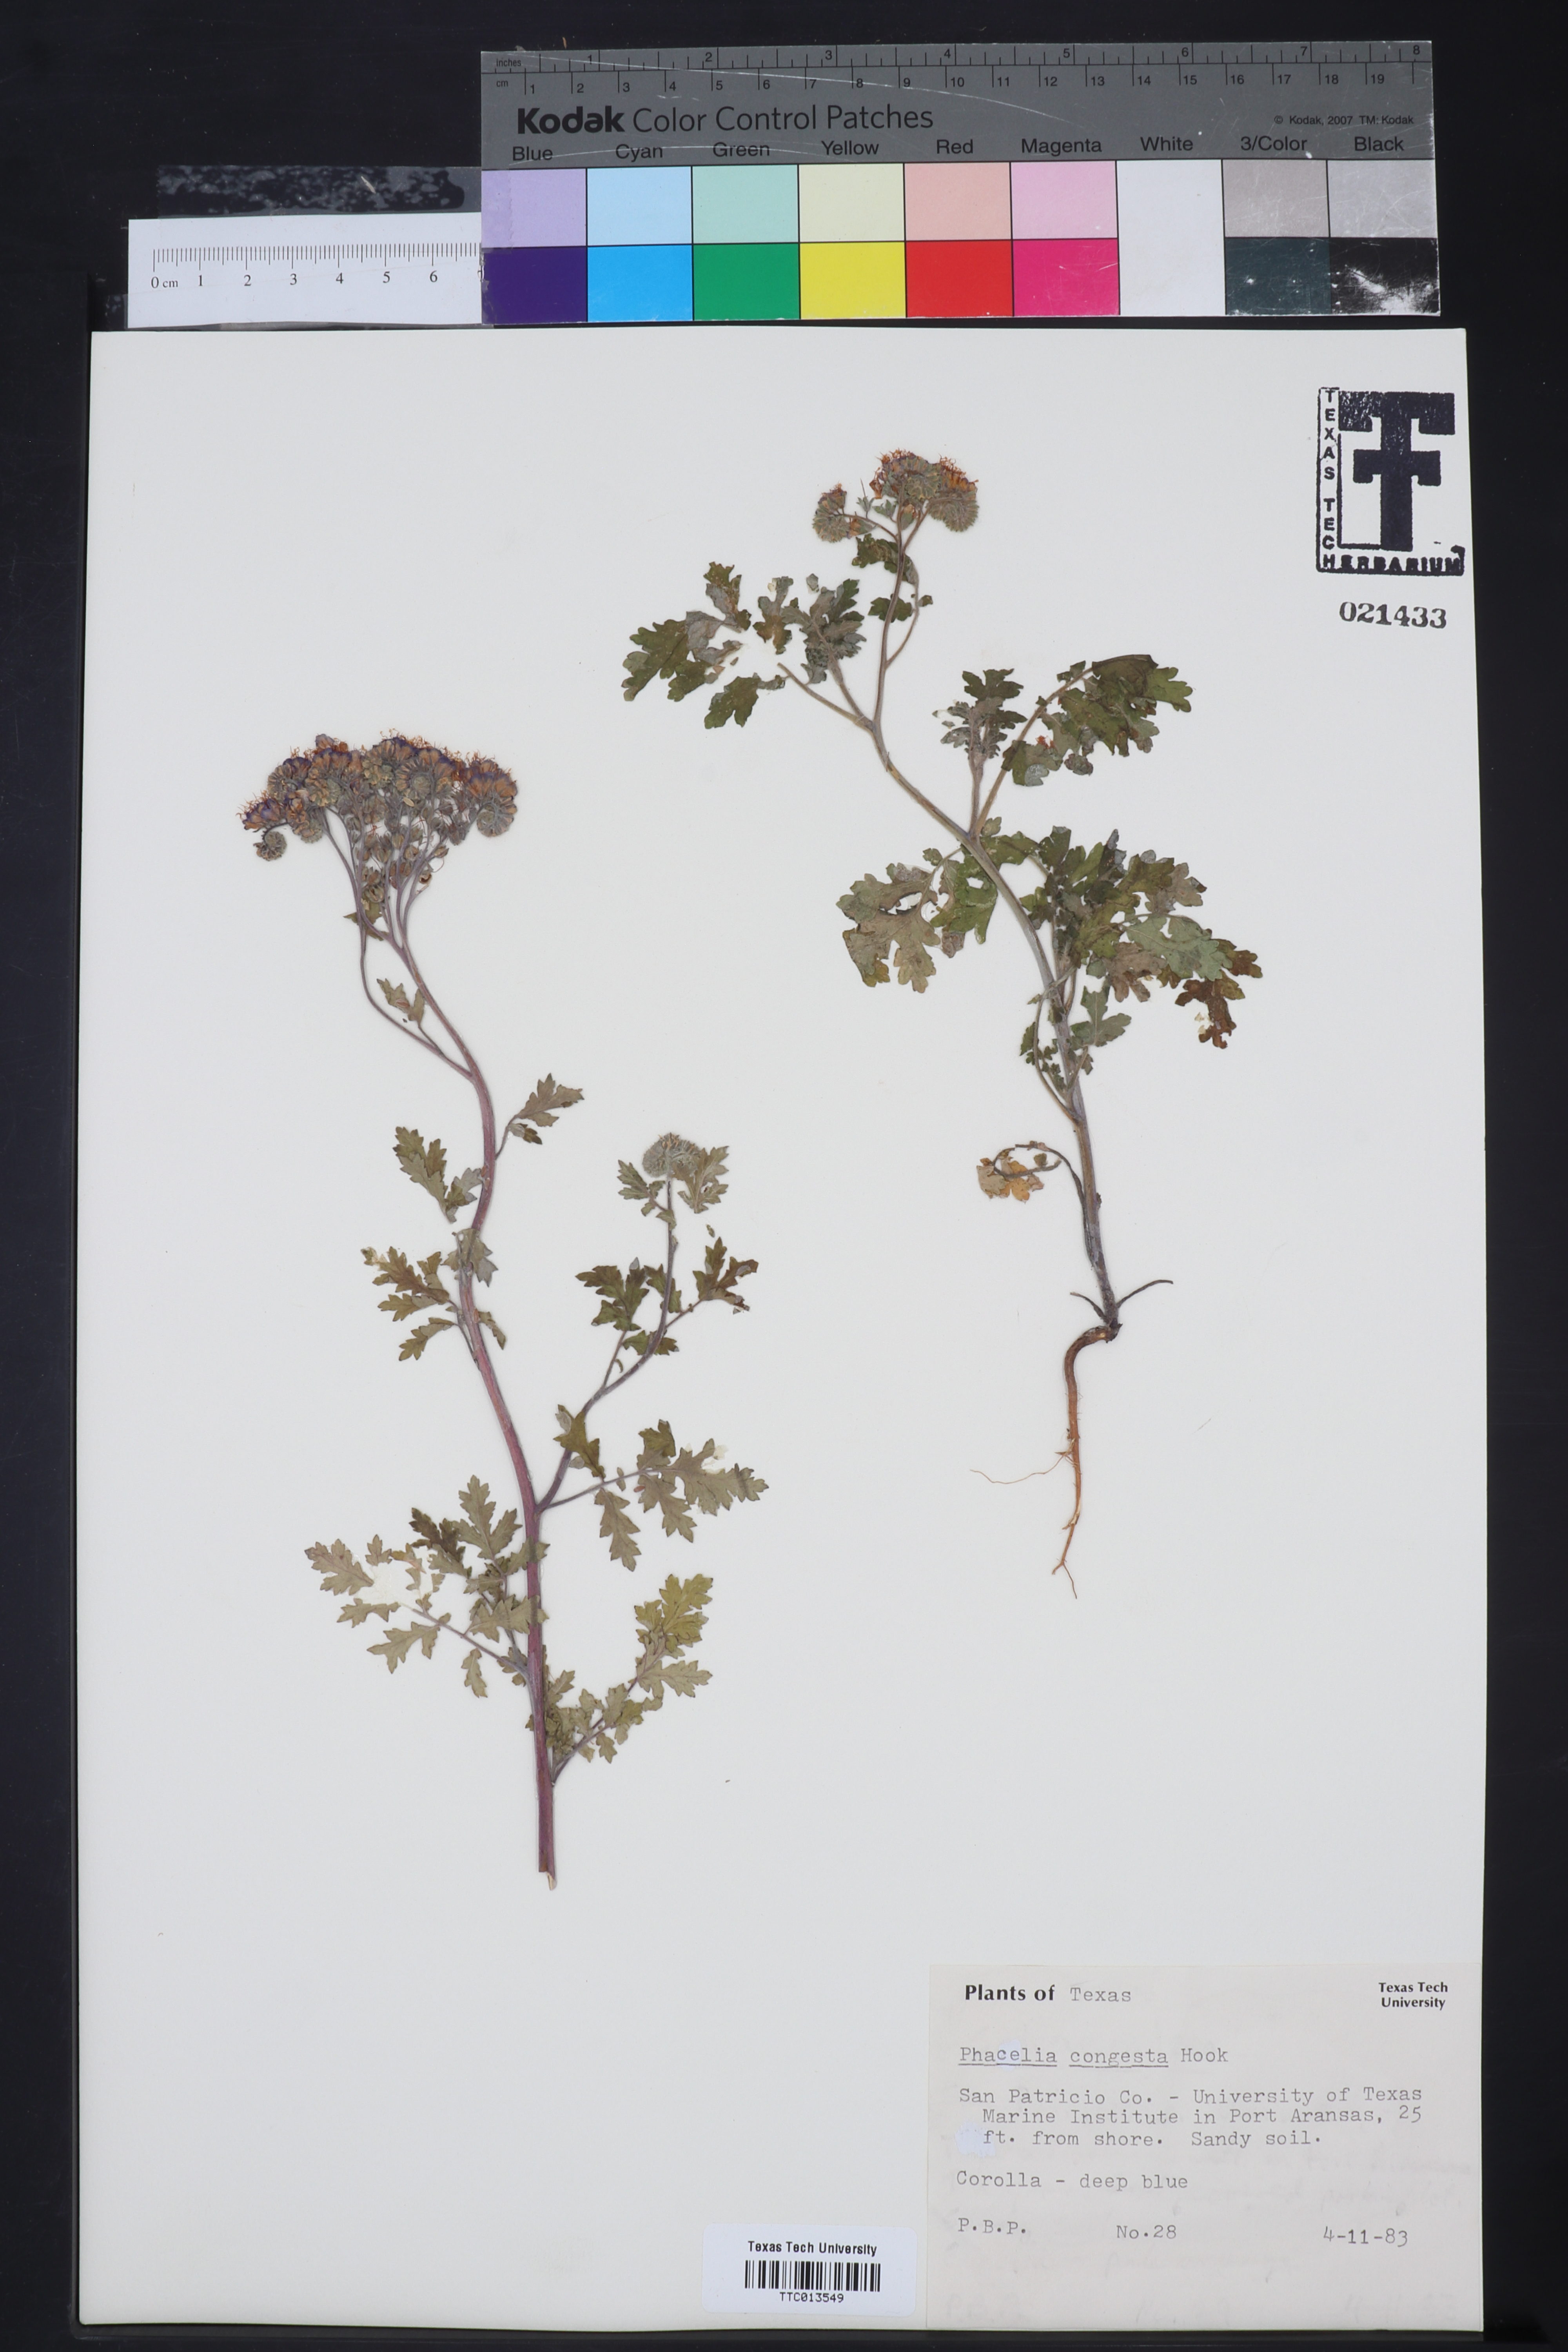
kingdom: Plantae
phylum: Tracheophyta
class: Magnoliopsida
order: Boraginales
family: Hydrophyllaceae
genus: Phacelia
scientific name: Phacelia congesta
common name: Blue curls
